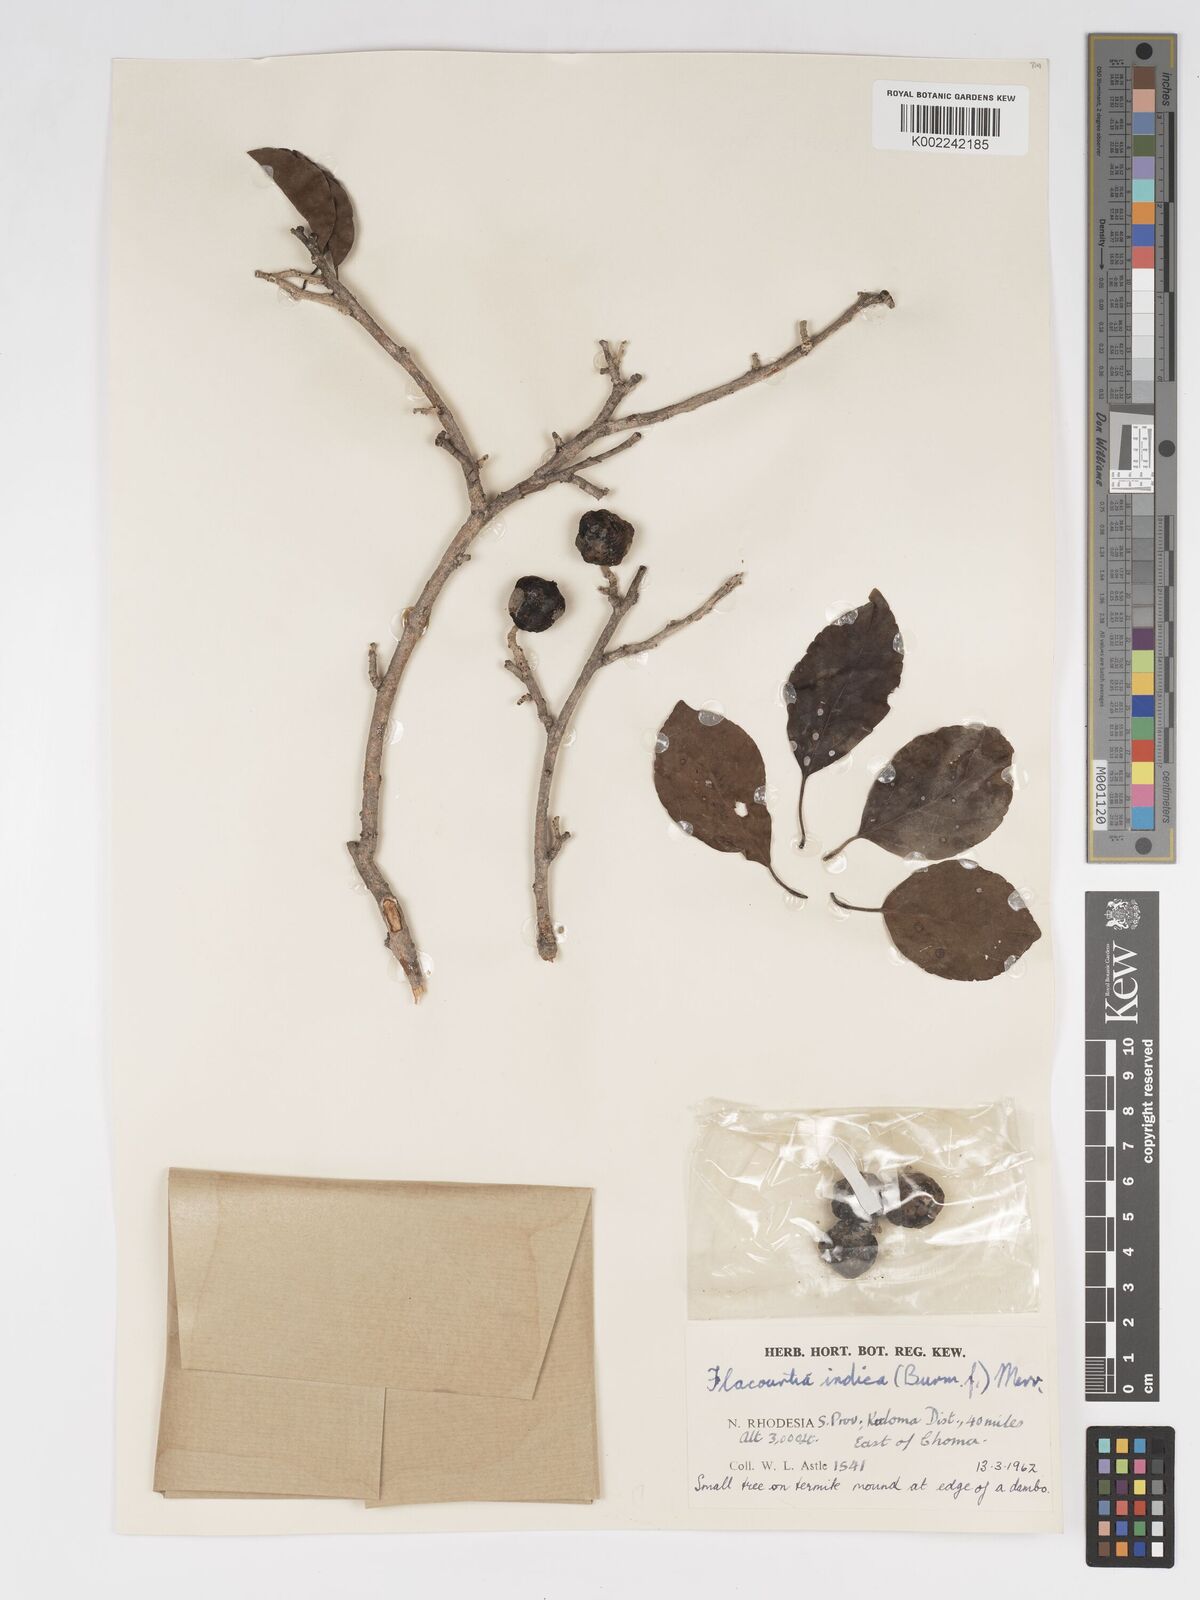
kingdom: Plantae
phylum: Tracheophyta
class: Magnoliopsida
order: Malpighiales
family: Salicaceae
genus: Flacourtia
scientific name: Flacourtia indica
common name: Governor's plum
